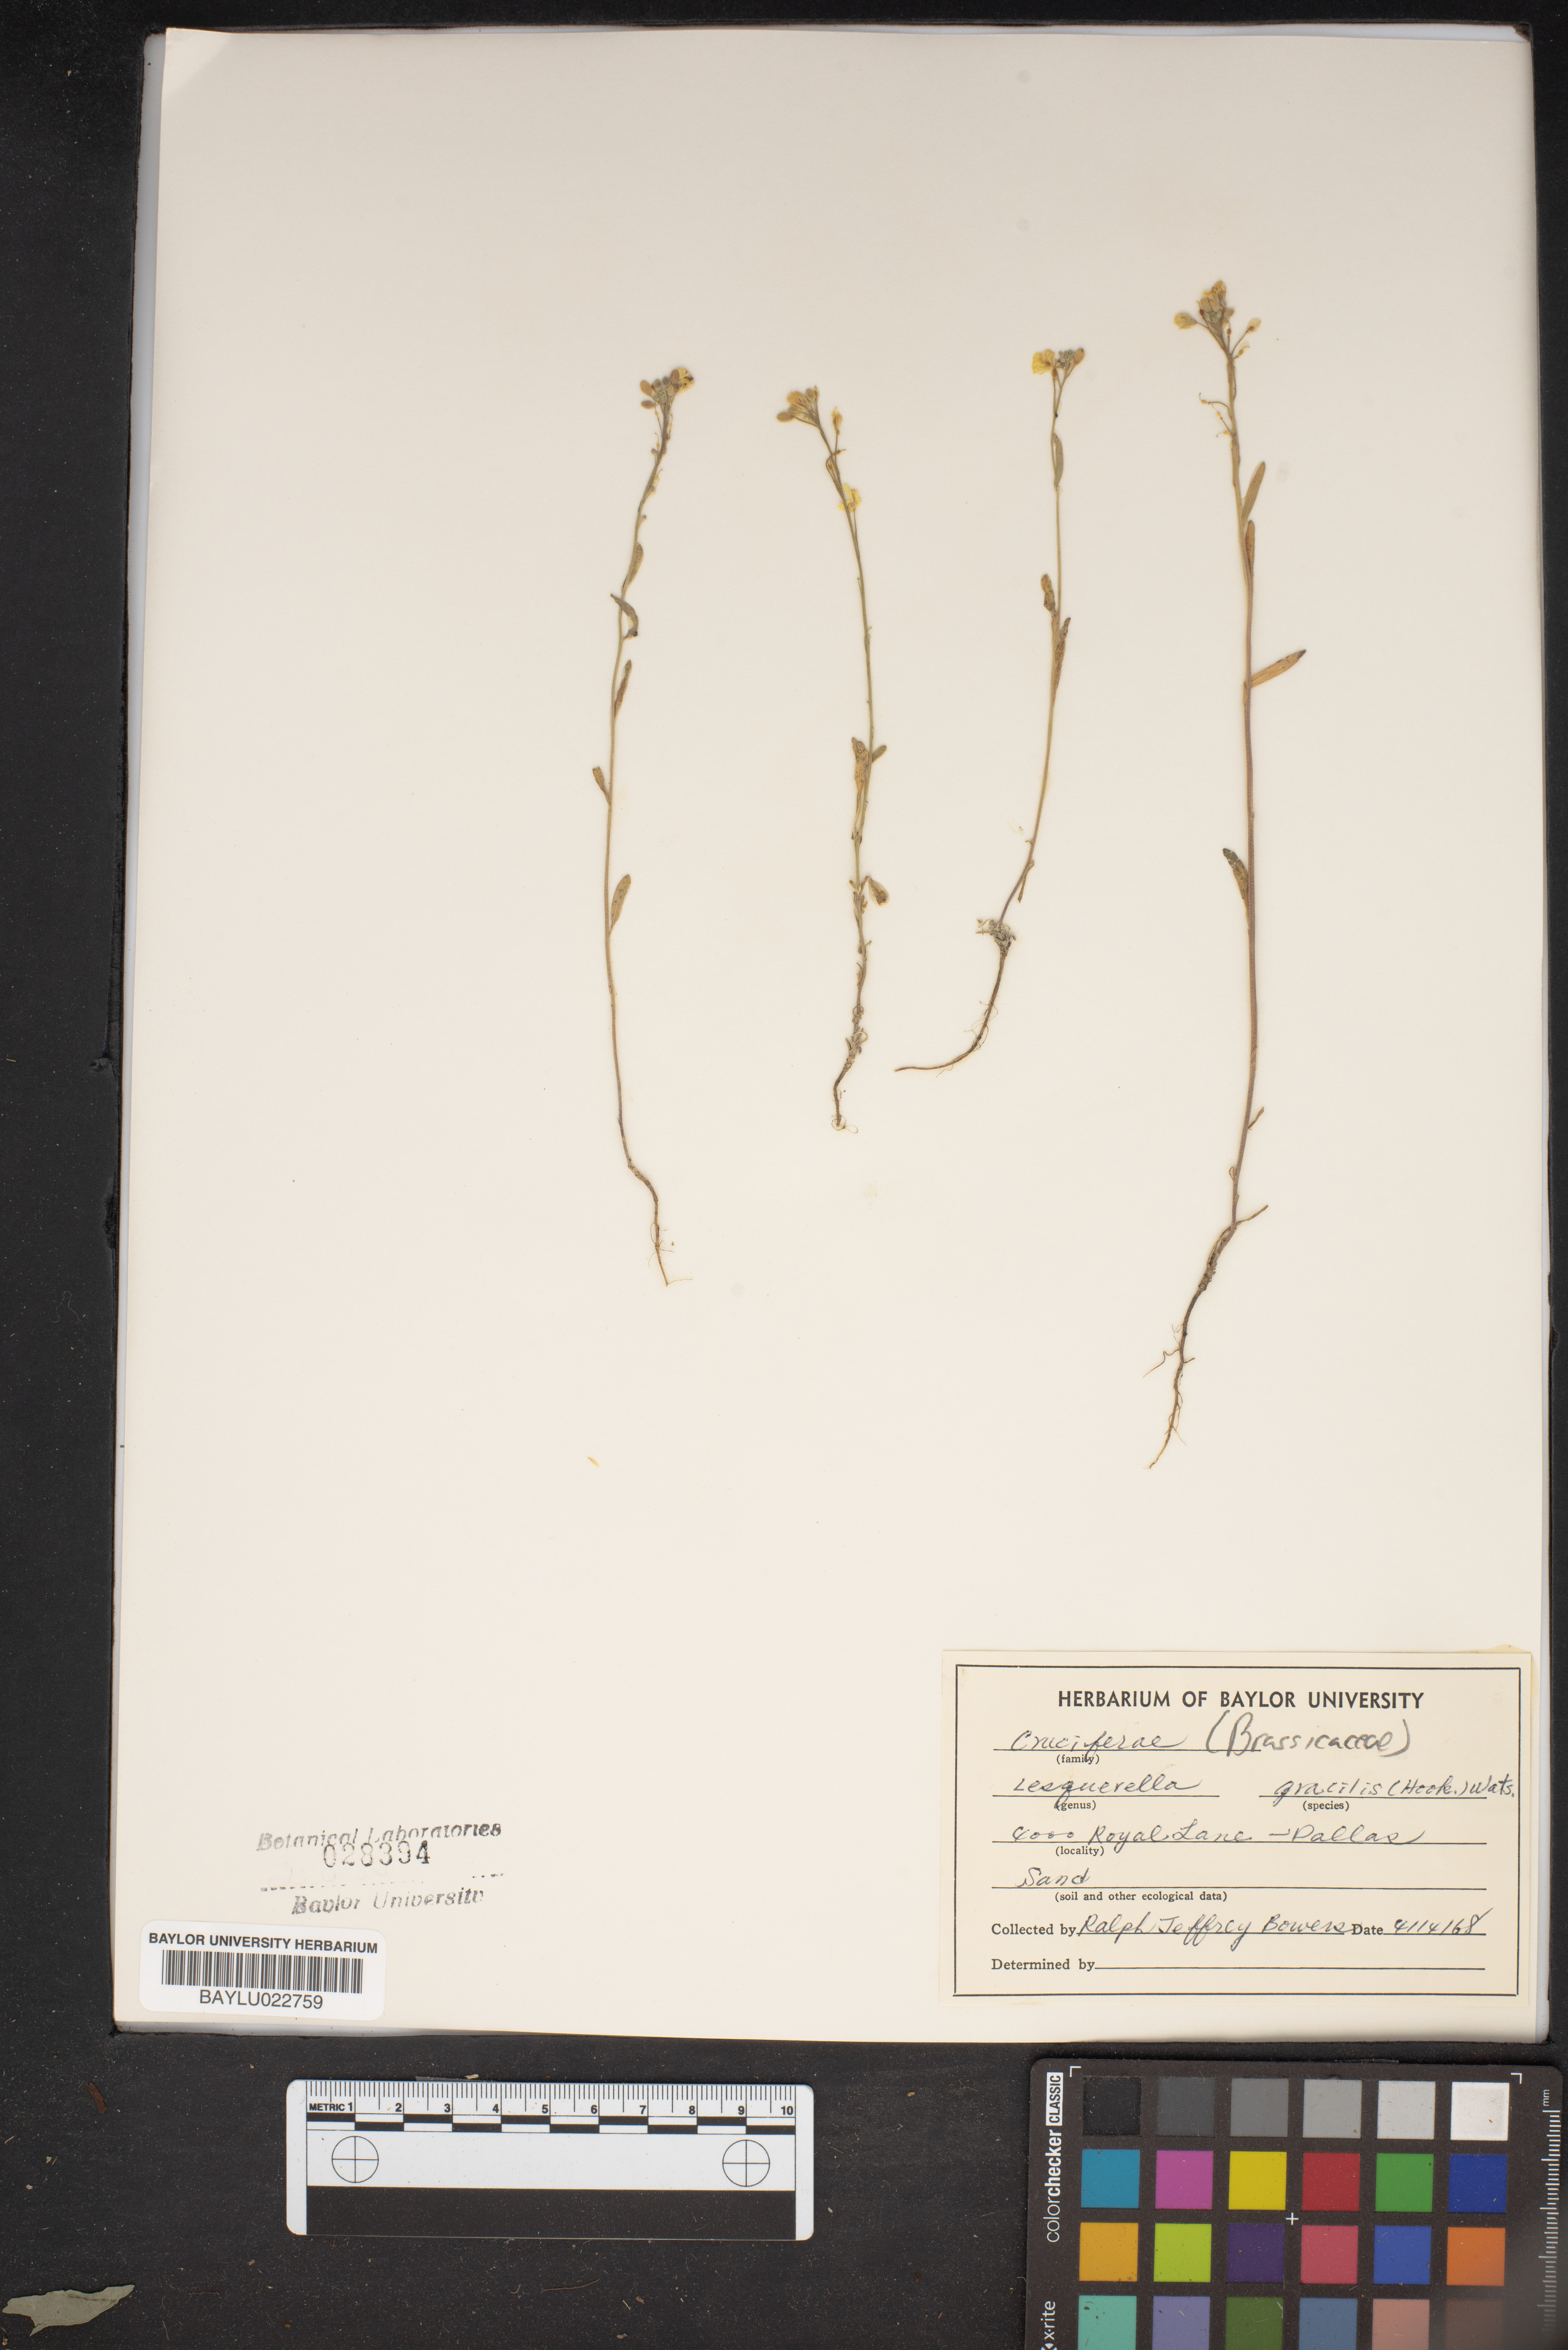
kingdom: Plantae
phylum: Tracheophyta
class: Magnoliopsida
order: Brassicales
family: Brassicaceae
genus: Physaria
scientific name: Physaria gracilis
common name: Spreading bladderpod
